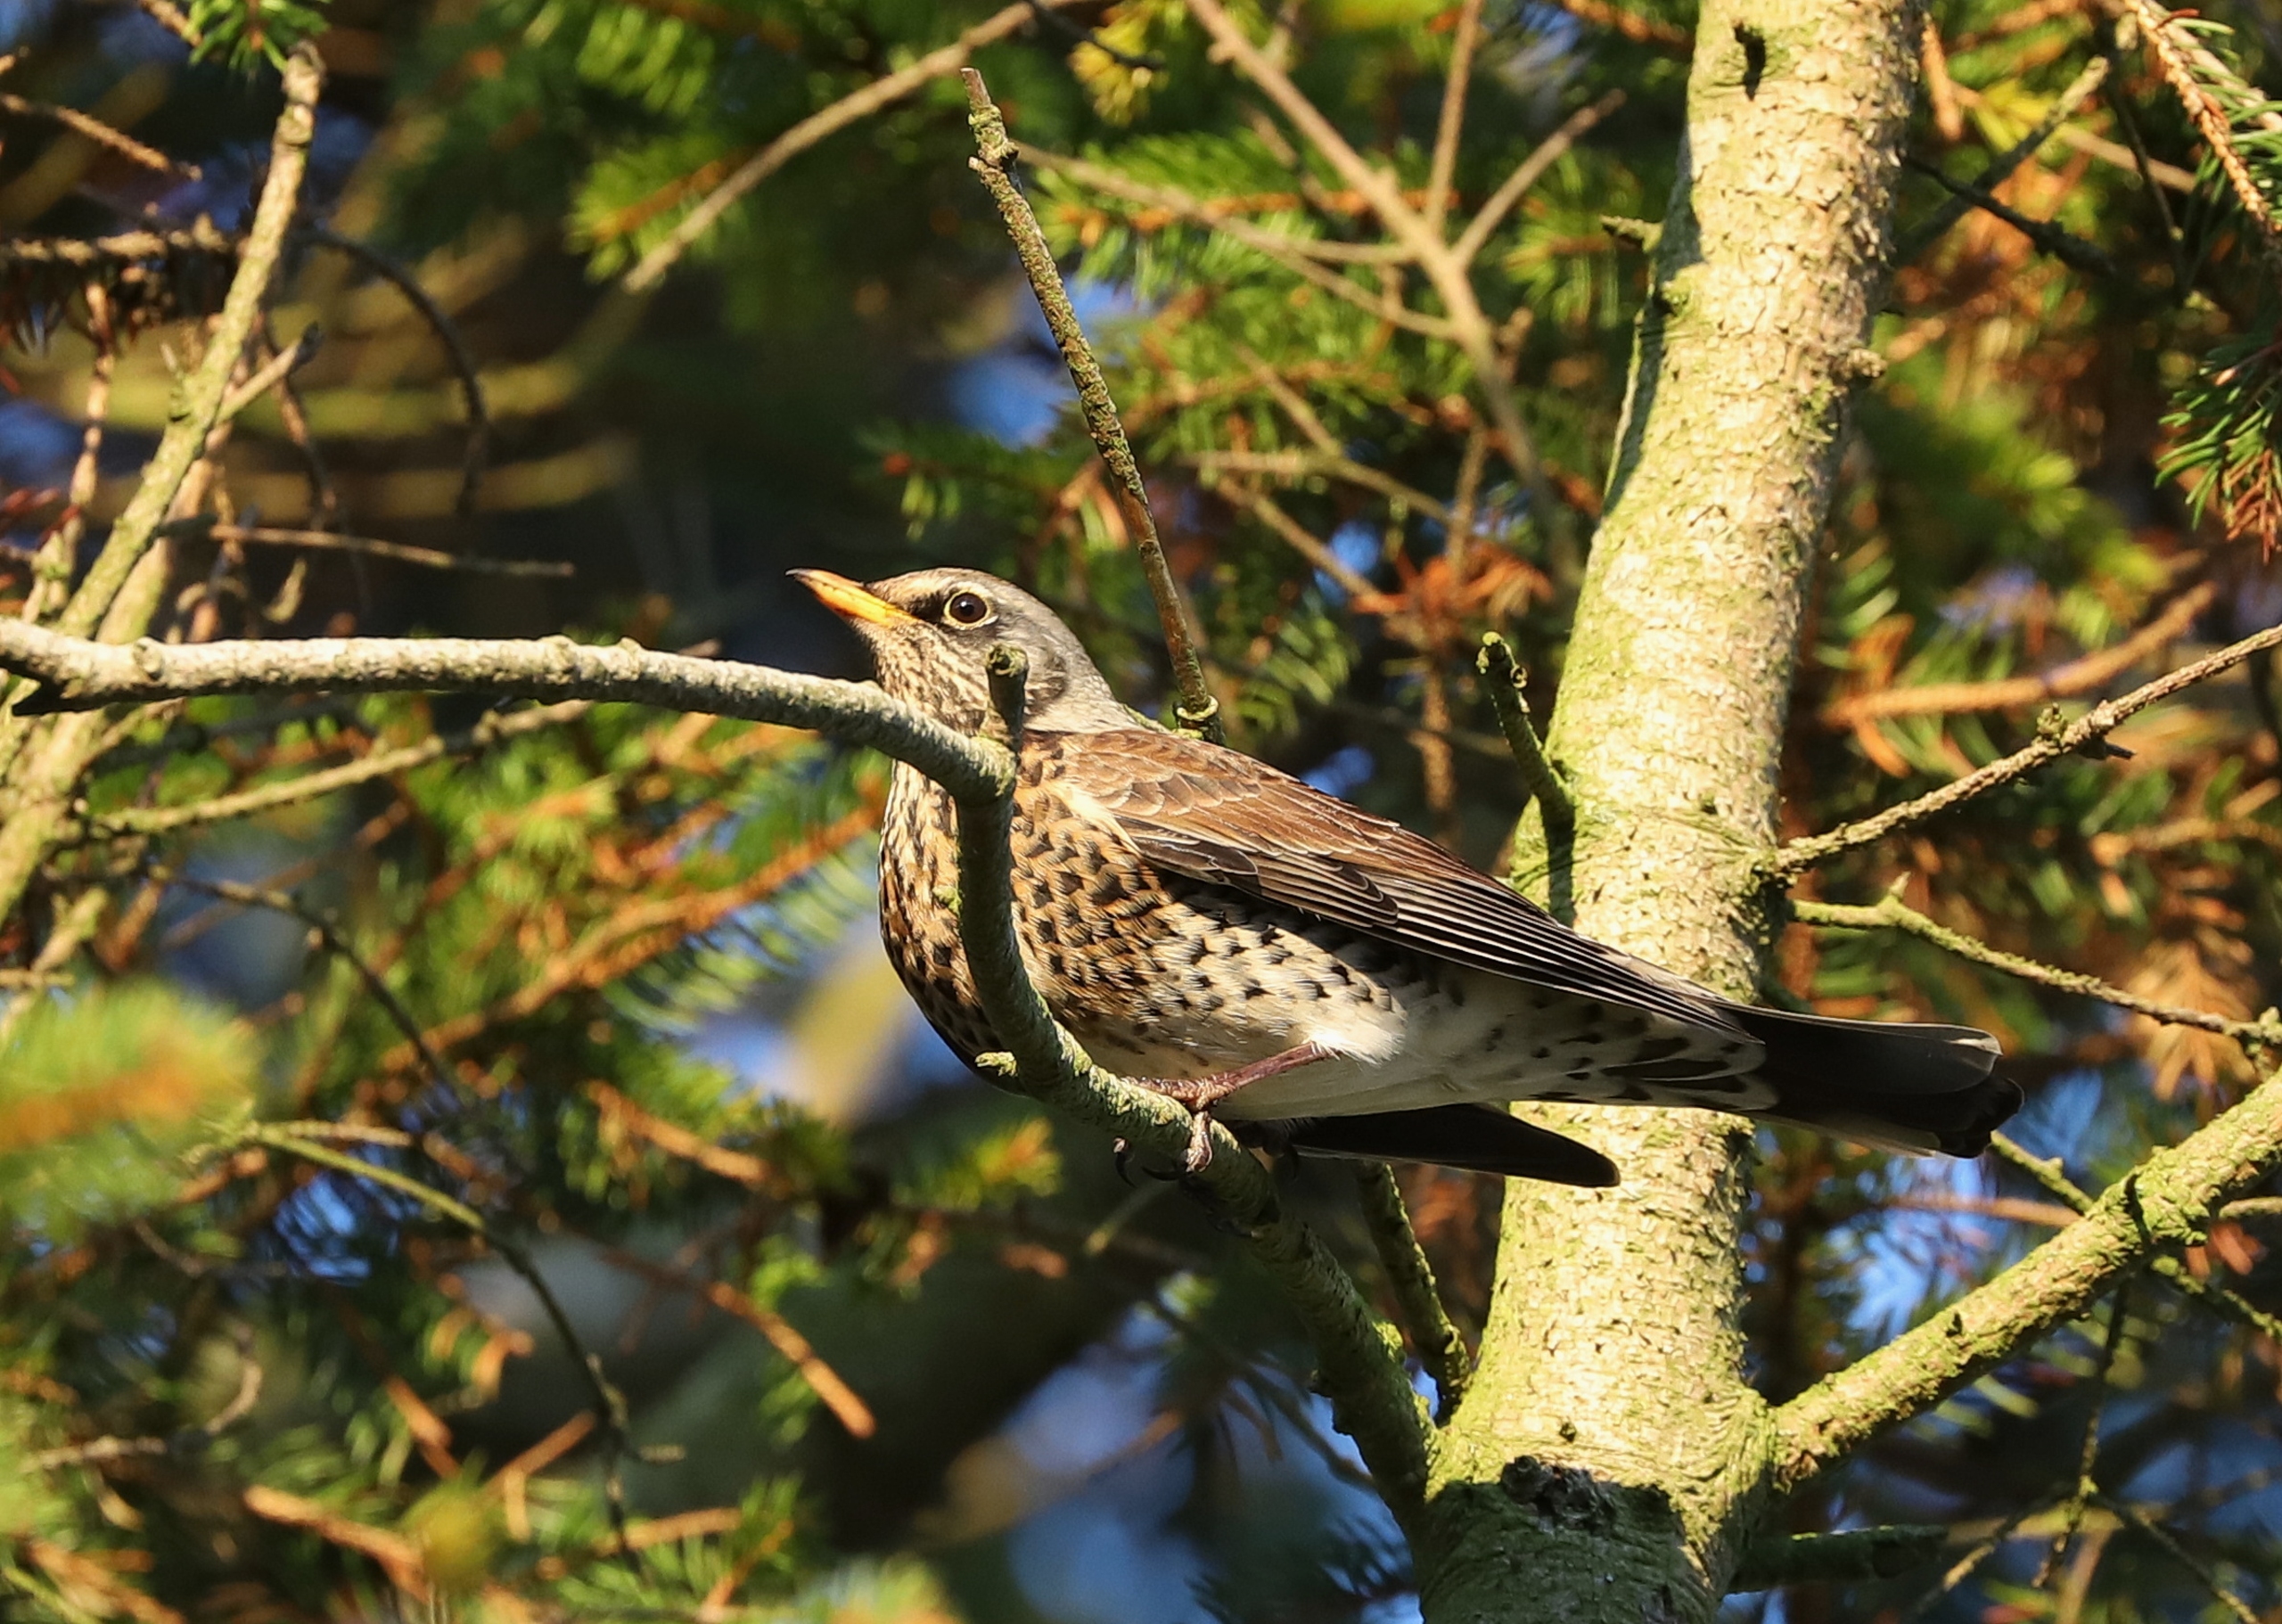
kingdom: Animalia
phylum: Chordata
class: Aves
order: Passeriformes
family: Turdidae
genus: Turdus
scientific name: Turdus pilaris
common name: Sjagger
